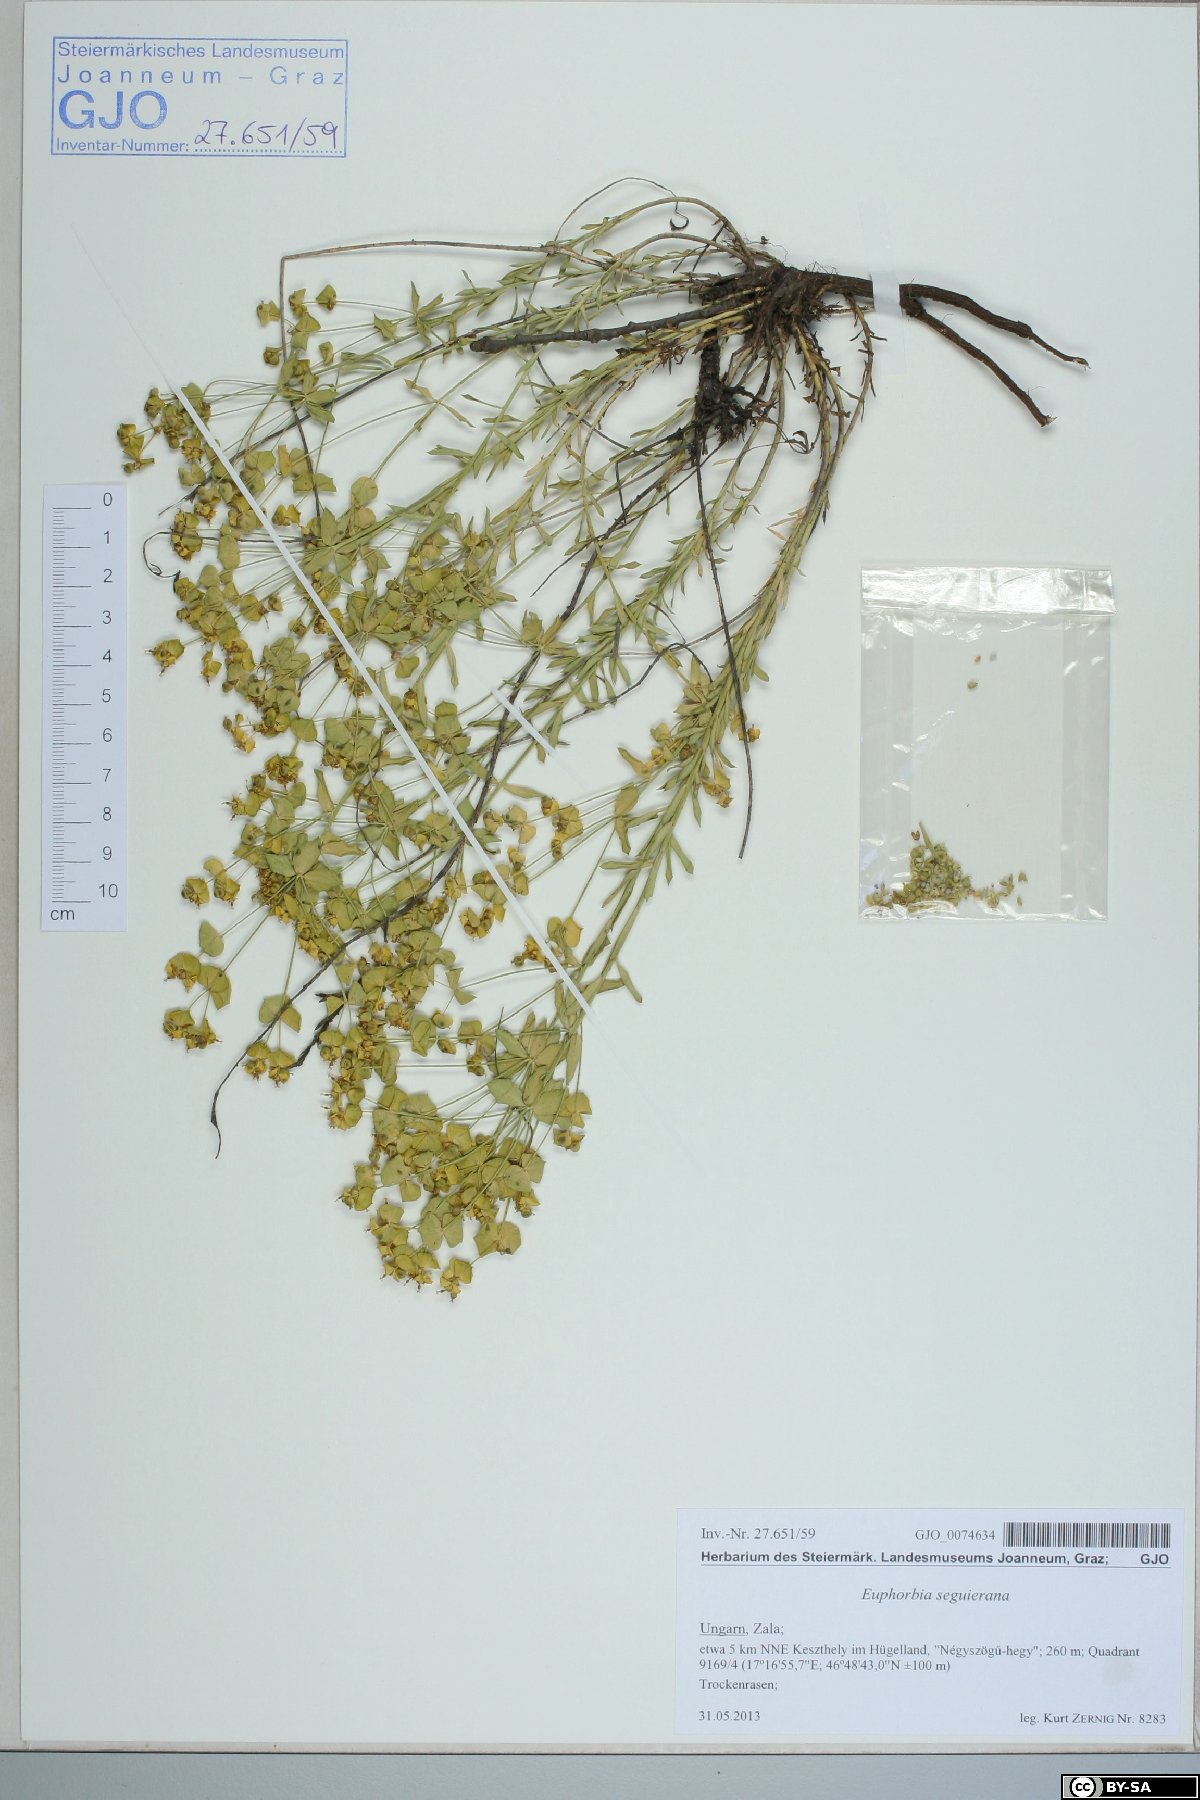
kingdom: Plantae
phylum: Tracheophyta
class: Magnoliopsida
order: Malpighiales
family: Euphorbiaceae
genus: Euphorbia
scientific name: Euphorbia seguieriana
